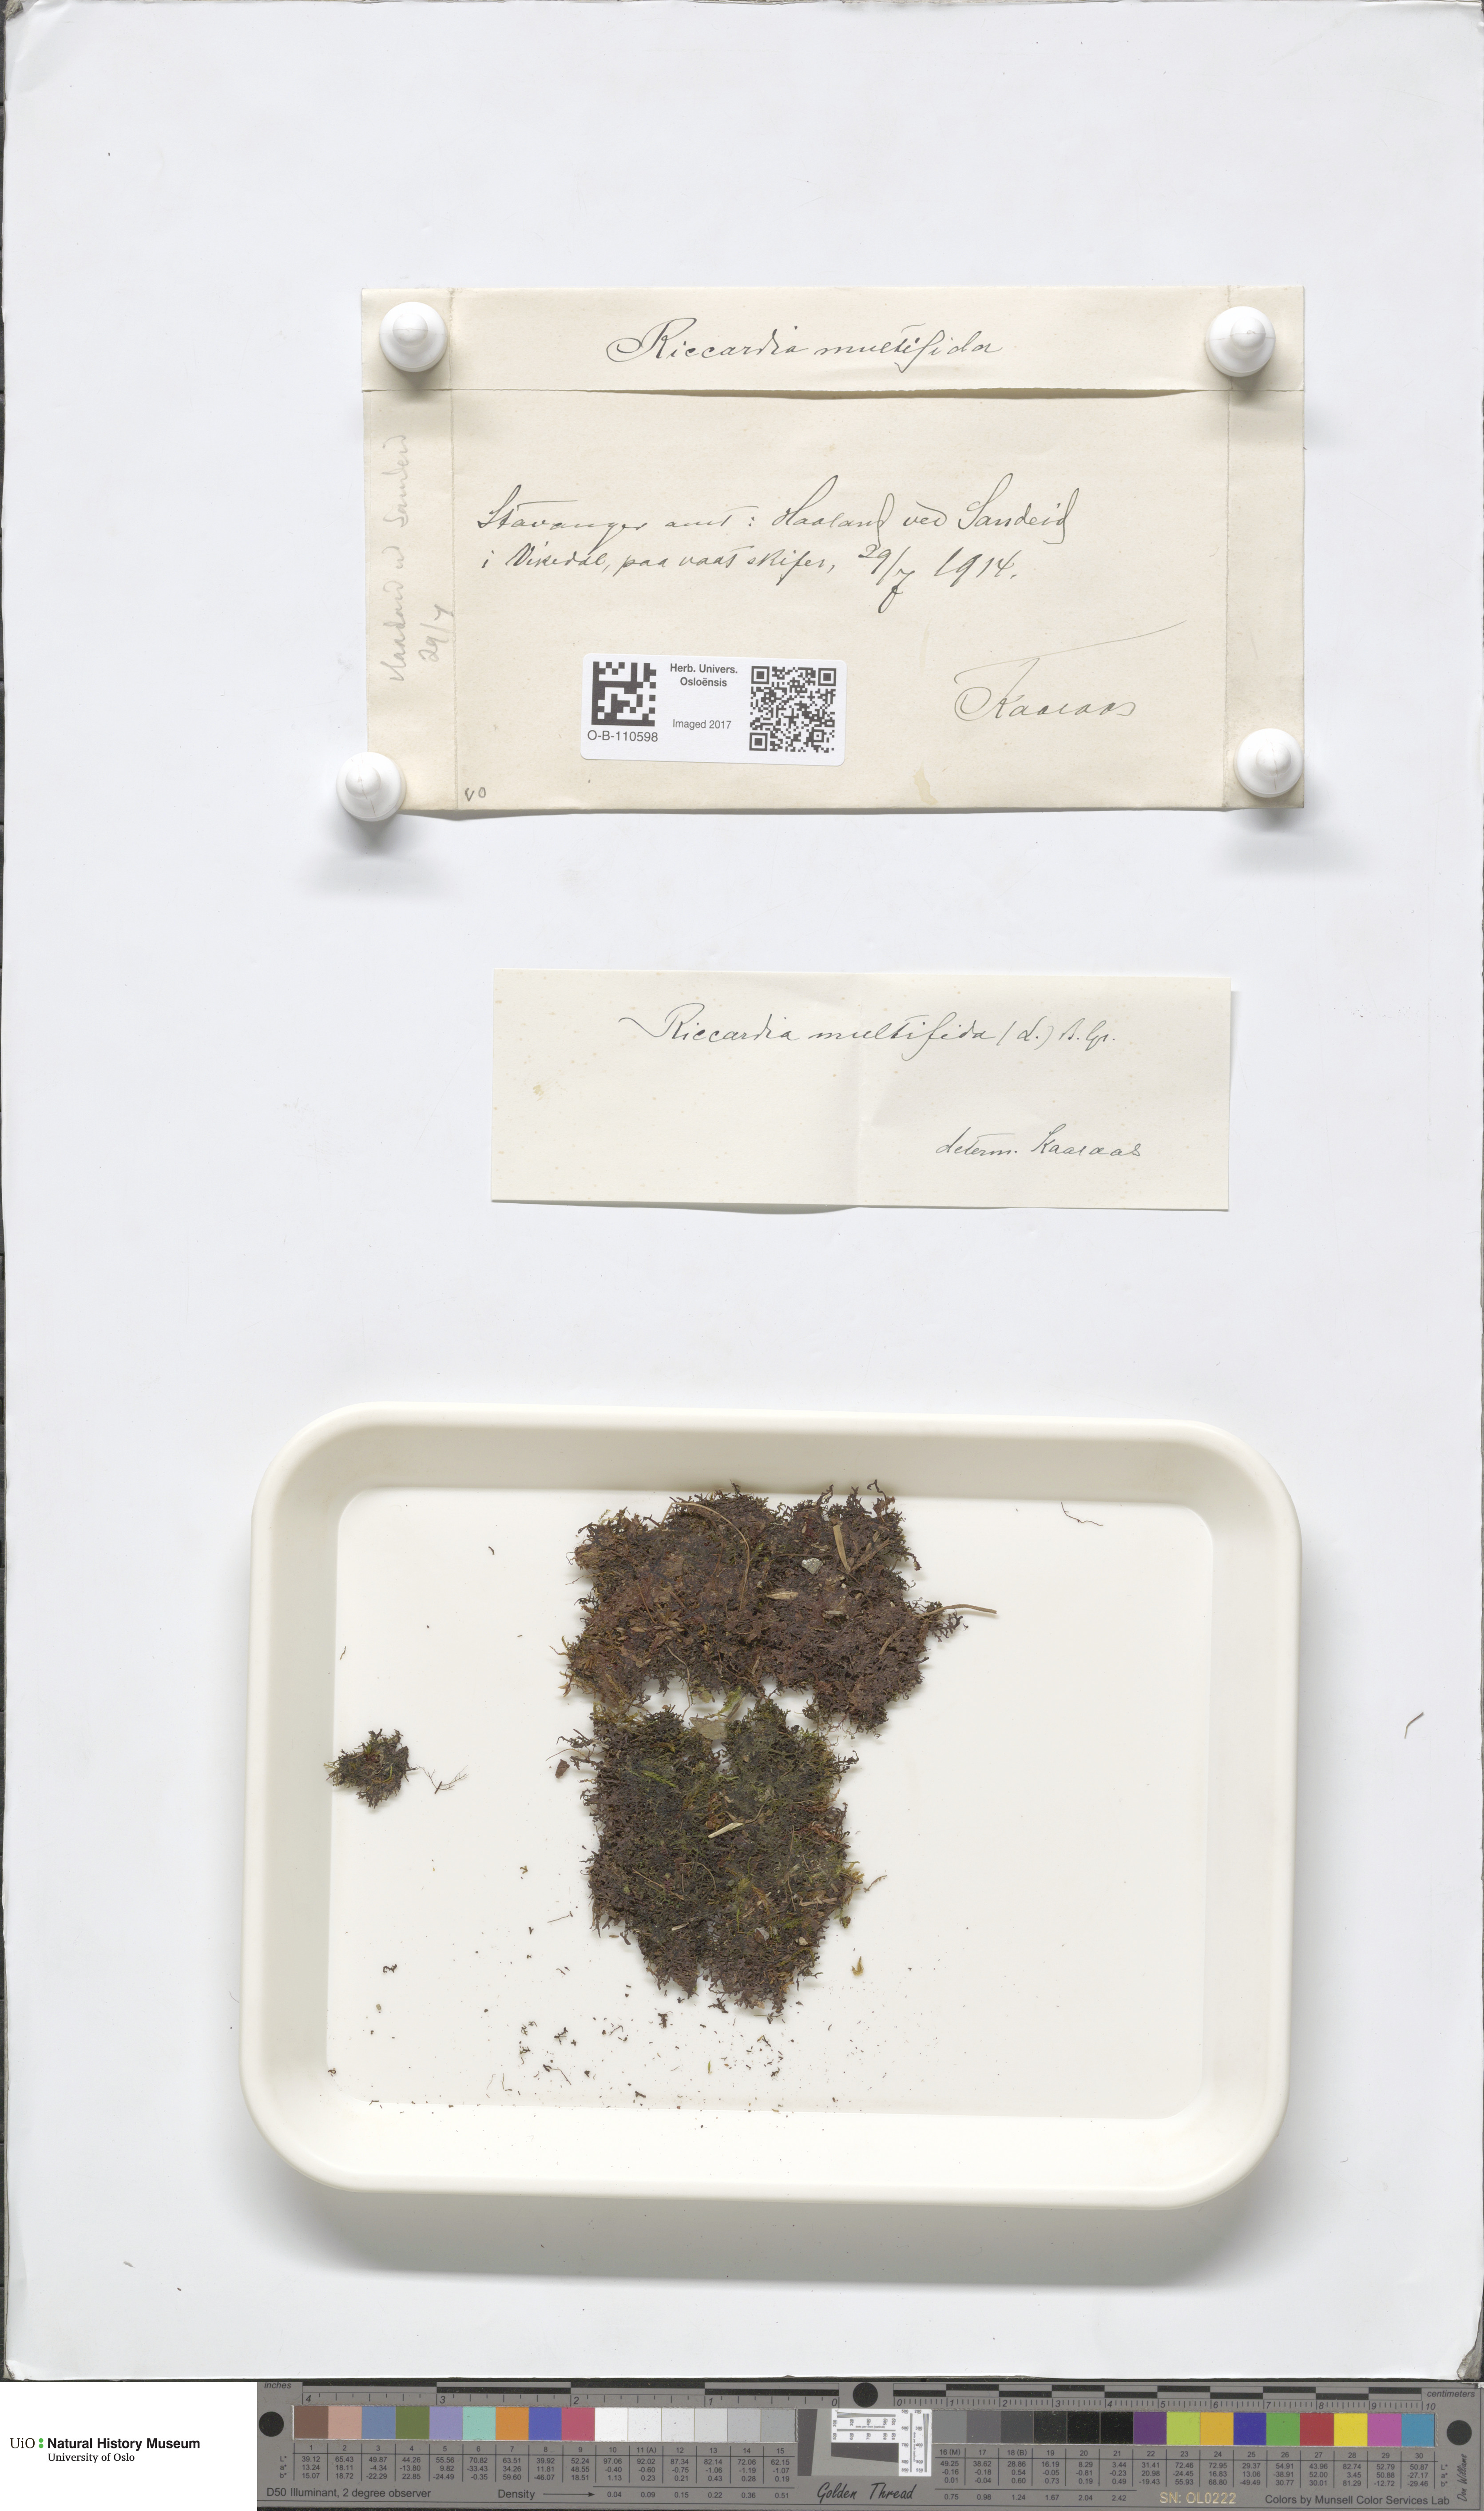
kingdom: Plantae
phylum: Marchantiophyta
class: Jungermanniopsida
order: Metzgeriales
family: Aneuraceae
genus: Riccardia
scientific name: Riccardia multifida
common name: Delicate germanderwort
